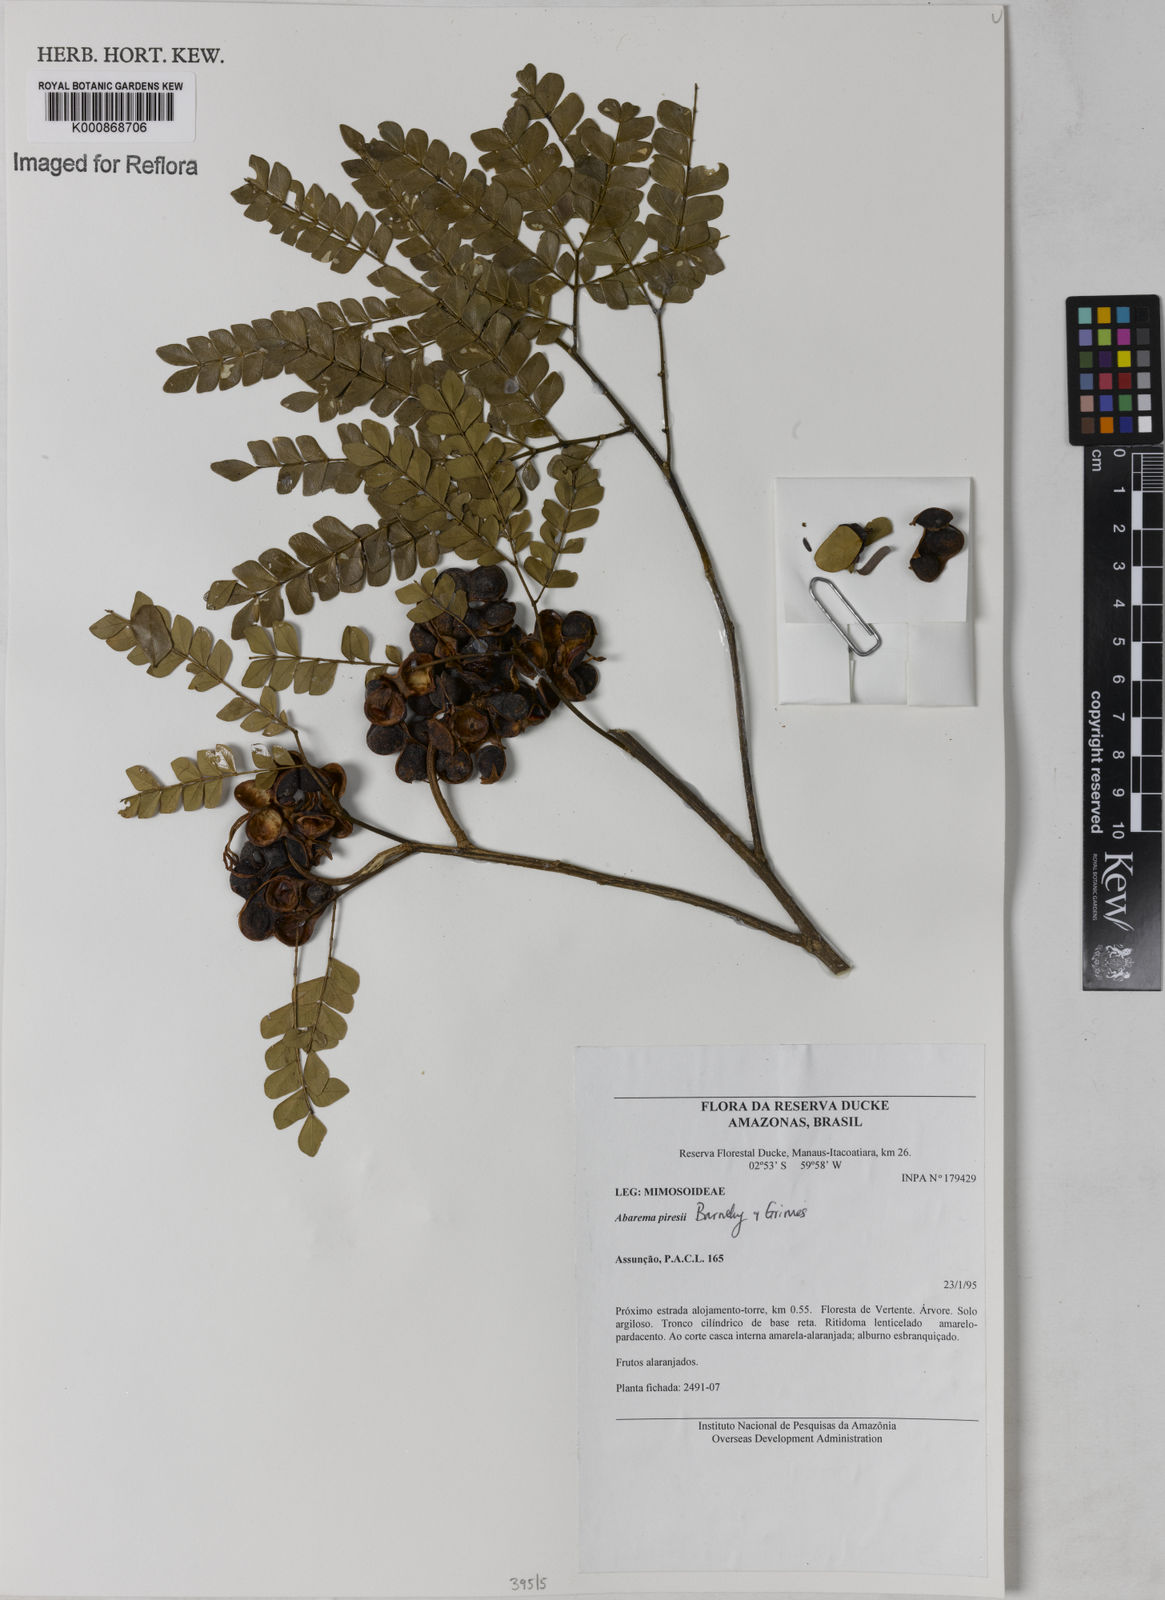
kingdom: Plantae
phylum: Tracheophyta
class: Magnoliopsida
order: Fabales
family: Fabaceae
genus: Jupunba
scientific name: Jupunba piresii
